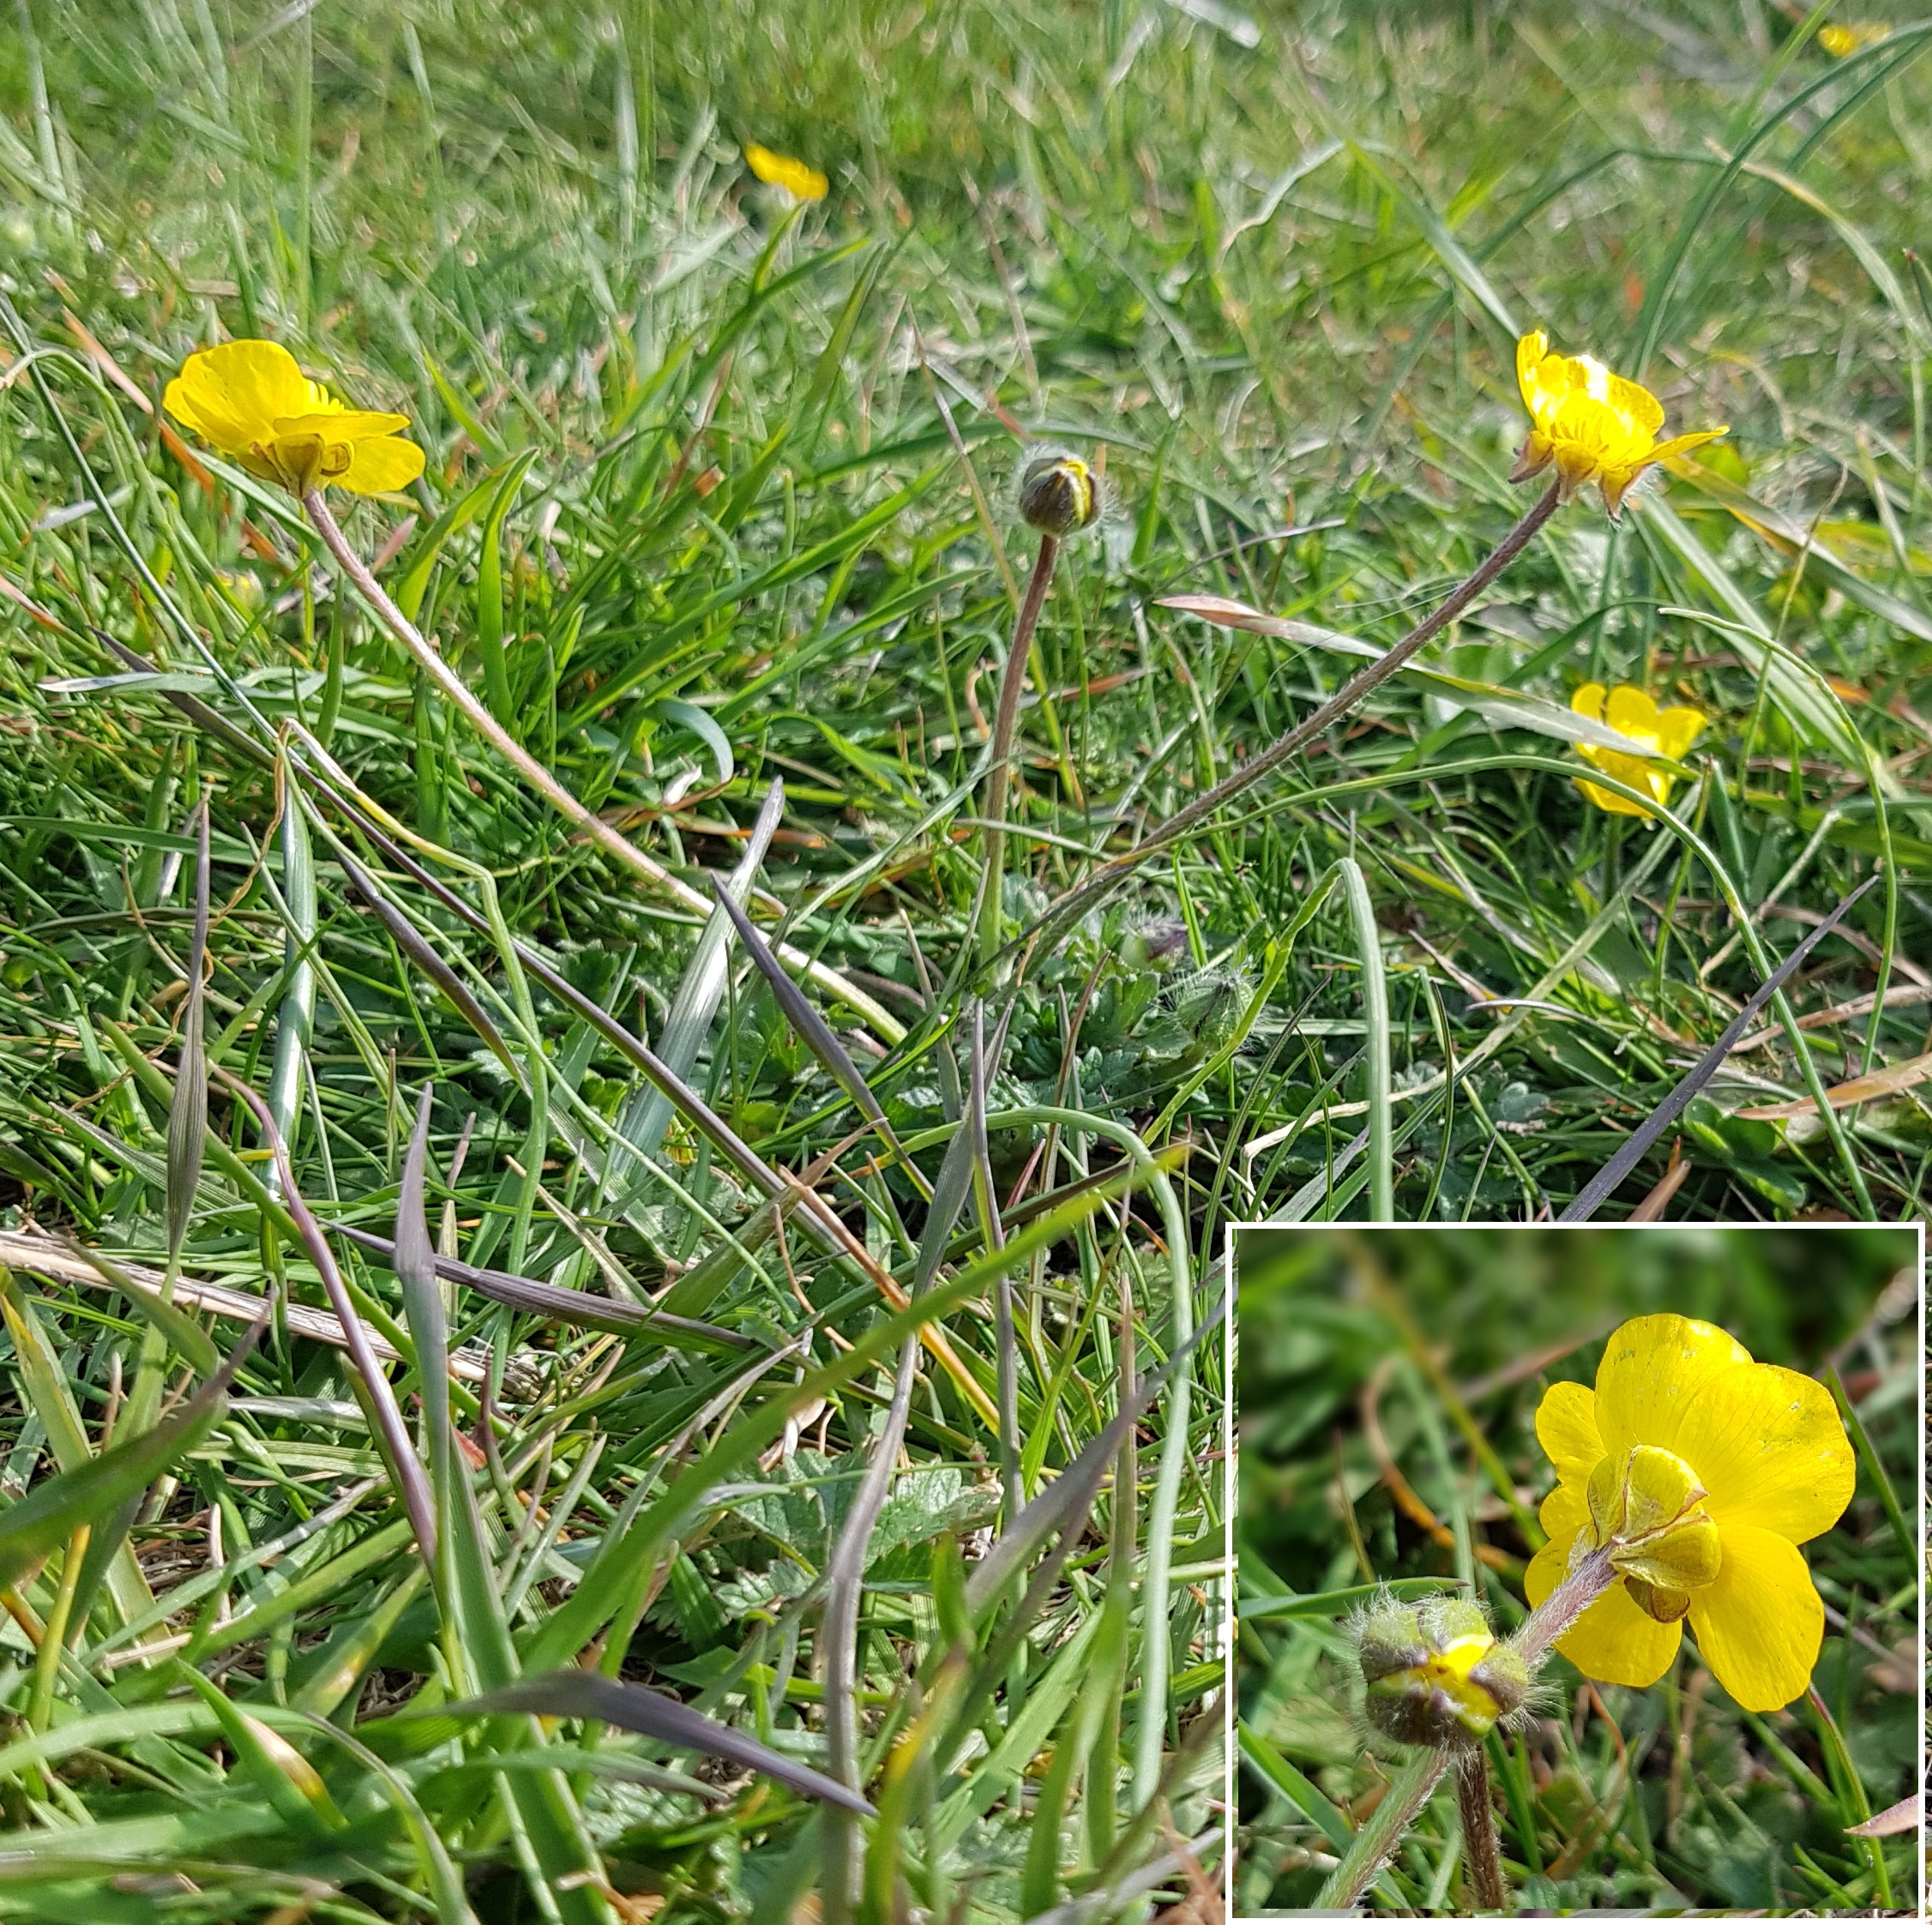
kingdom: Plantae
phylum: Tracheophyta
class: Magnoliopsida
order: Ranunculales
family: Ranunculaceae
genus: Ranunculus
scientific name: Ranunculus bulbosus
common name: Knold-ranunkel
